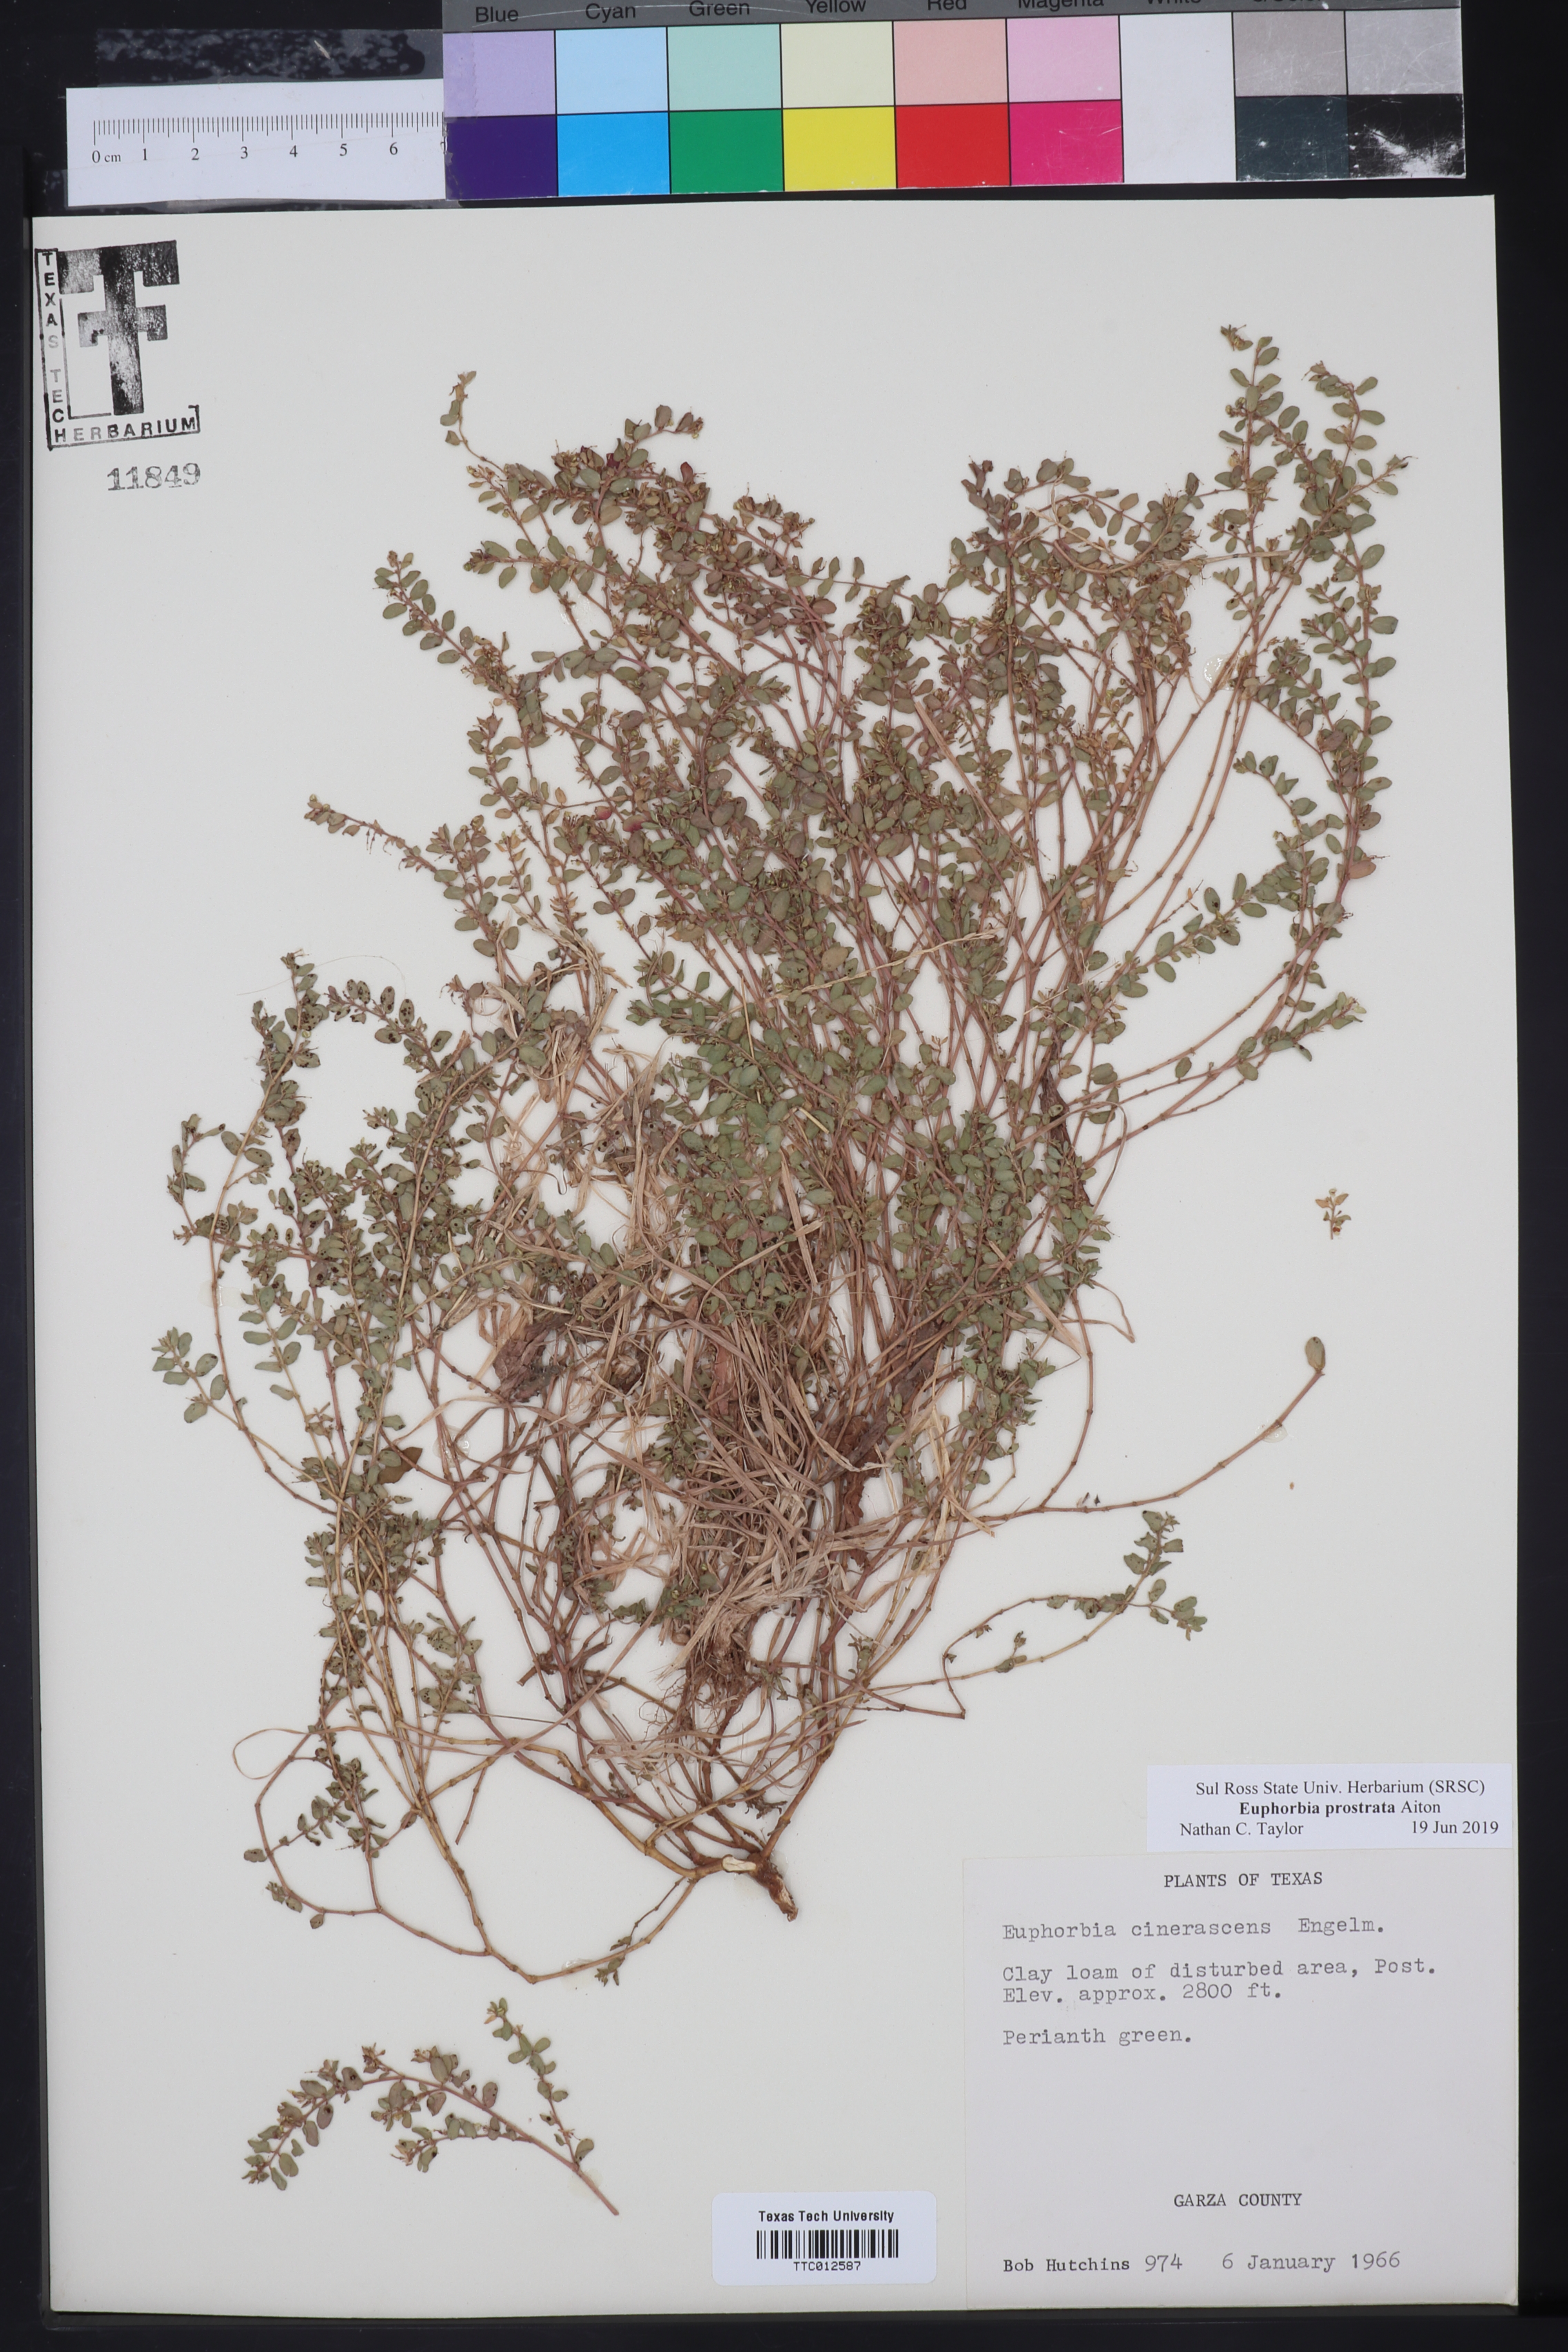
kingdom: Plantae
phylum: Tracheophyta
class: Magnoliopsida
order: Malpighiales
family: Euphorbiaceae
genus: Euphorbia
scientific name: Euphorbia prostrata
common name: Prostrate sandmat
